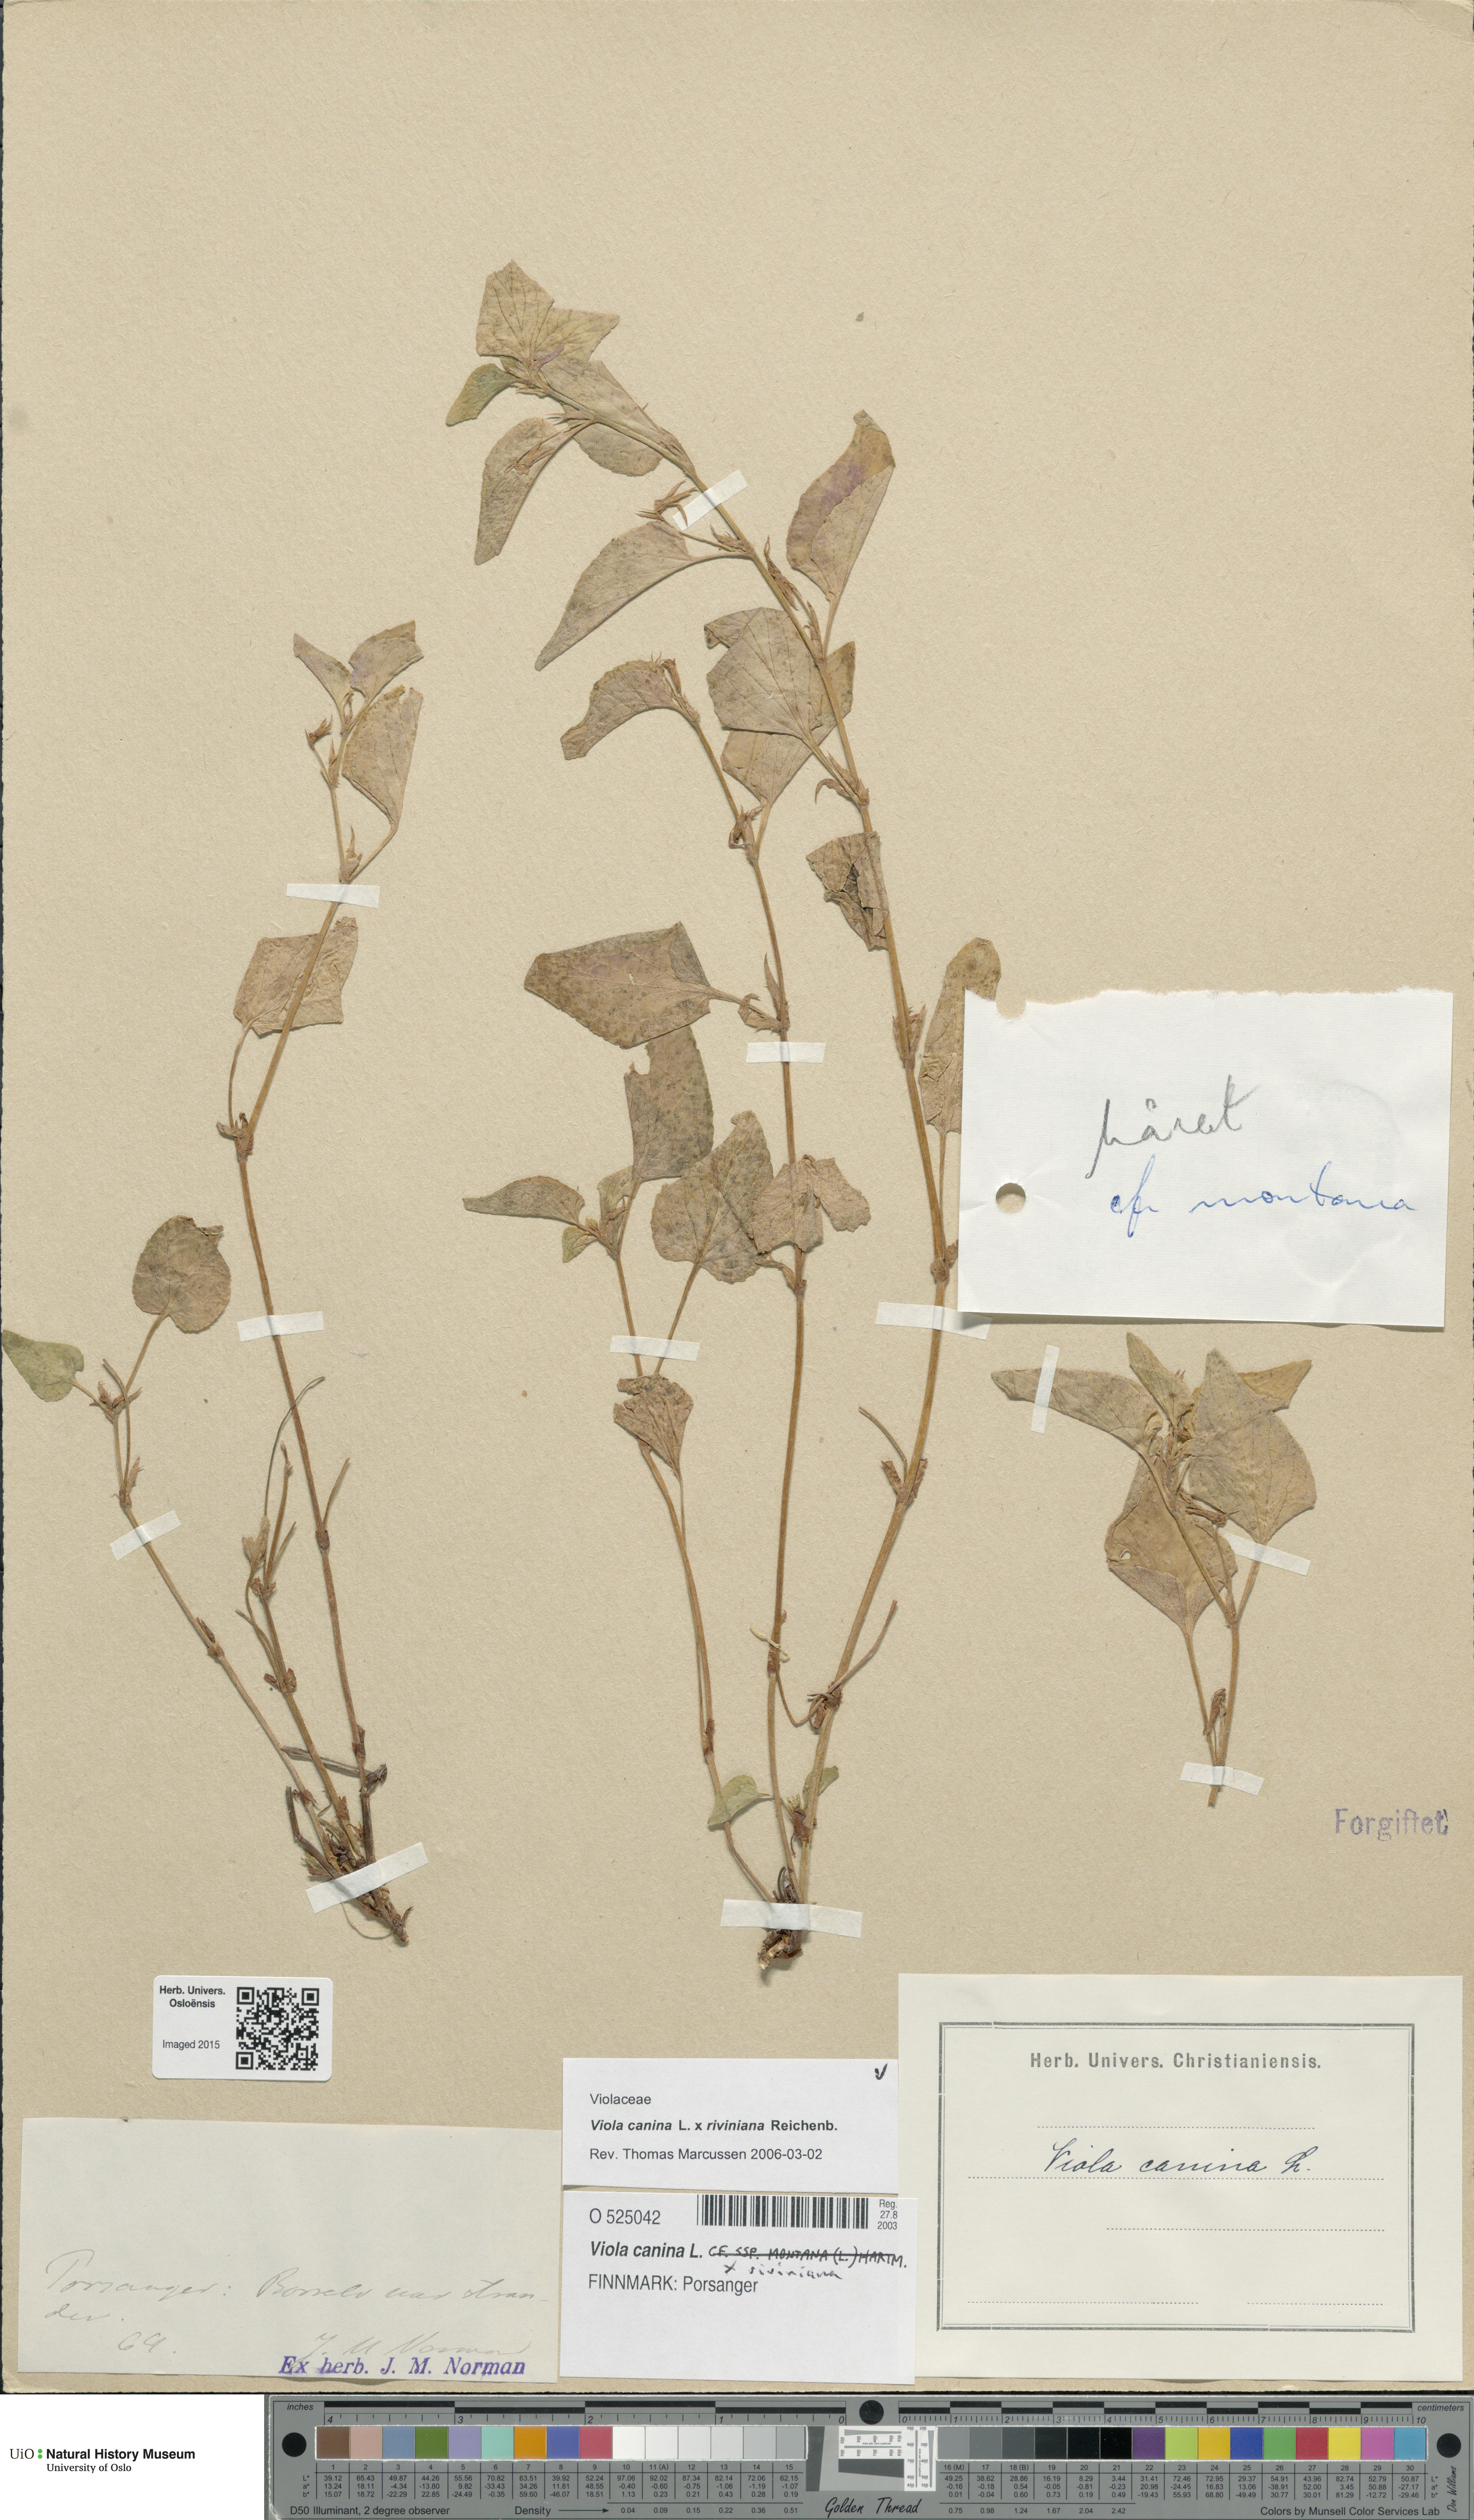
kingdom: Plantae
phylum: Tracheophyta
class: Magnoliopsida
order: Malpighiales
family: Violaceae
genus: Viola
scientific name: Viola
